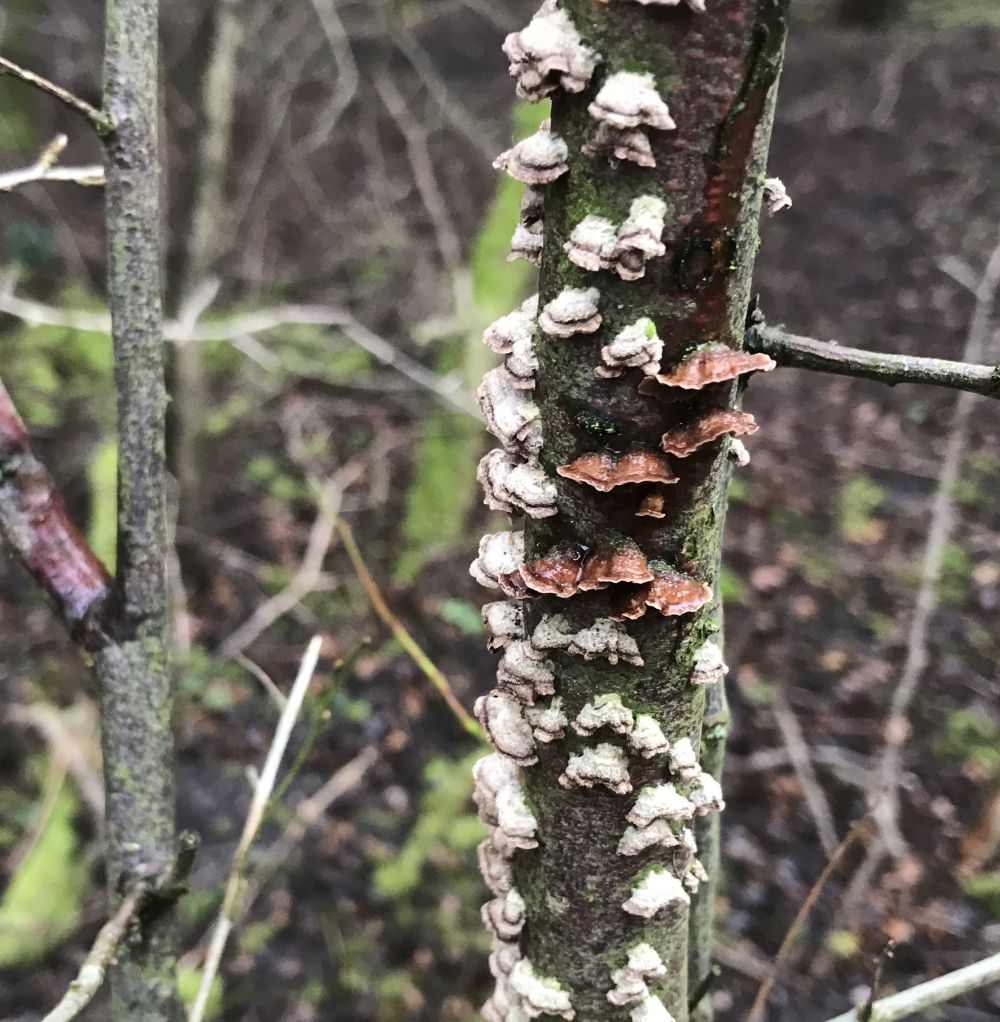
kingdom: Fungi
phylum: Basidiomycota
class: Agaricomycetes
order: Corticiales
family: Corticiaceae
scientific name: Corticiaceae
